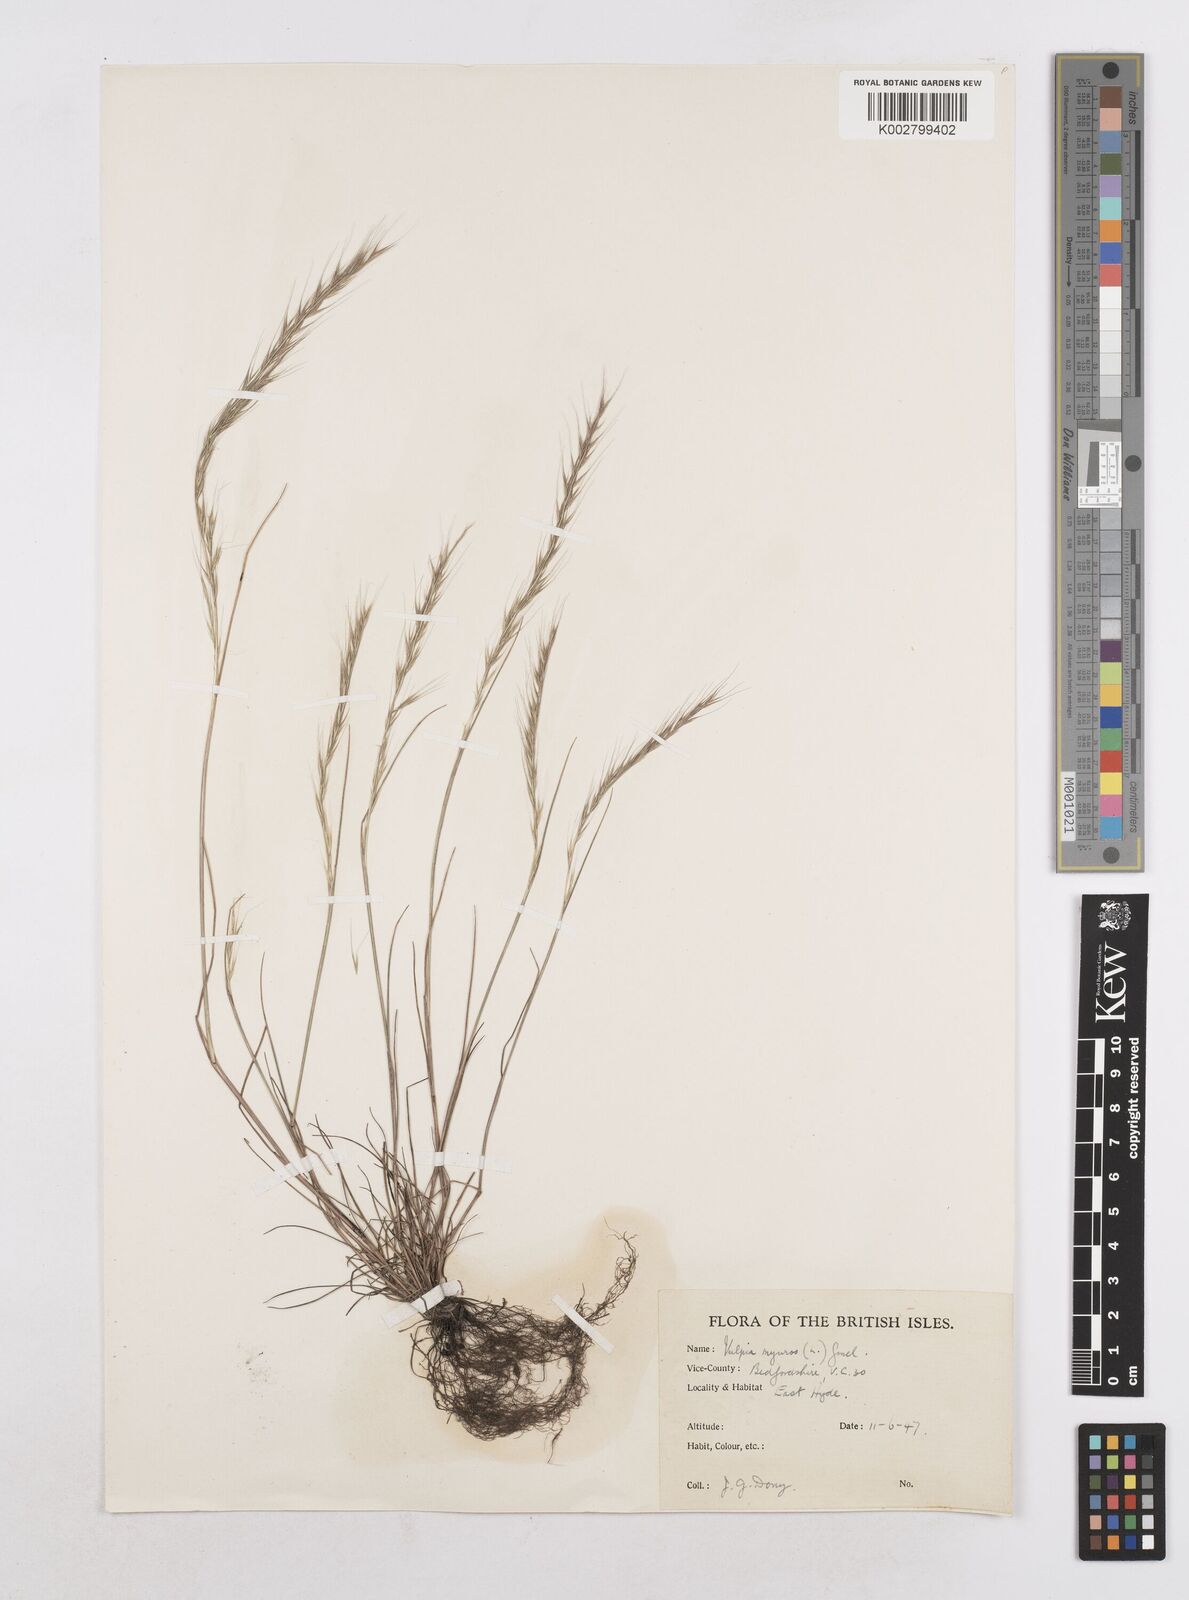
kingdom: Plantae
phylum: Tracheophyta
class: Liliopsida
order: Poales
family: Poaceae
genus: Festuca
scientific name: Festuca myuros
